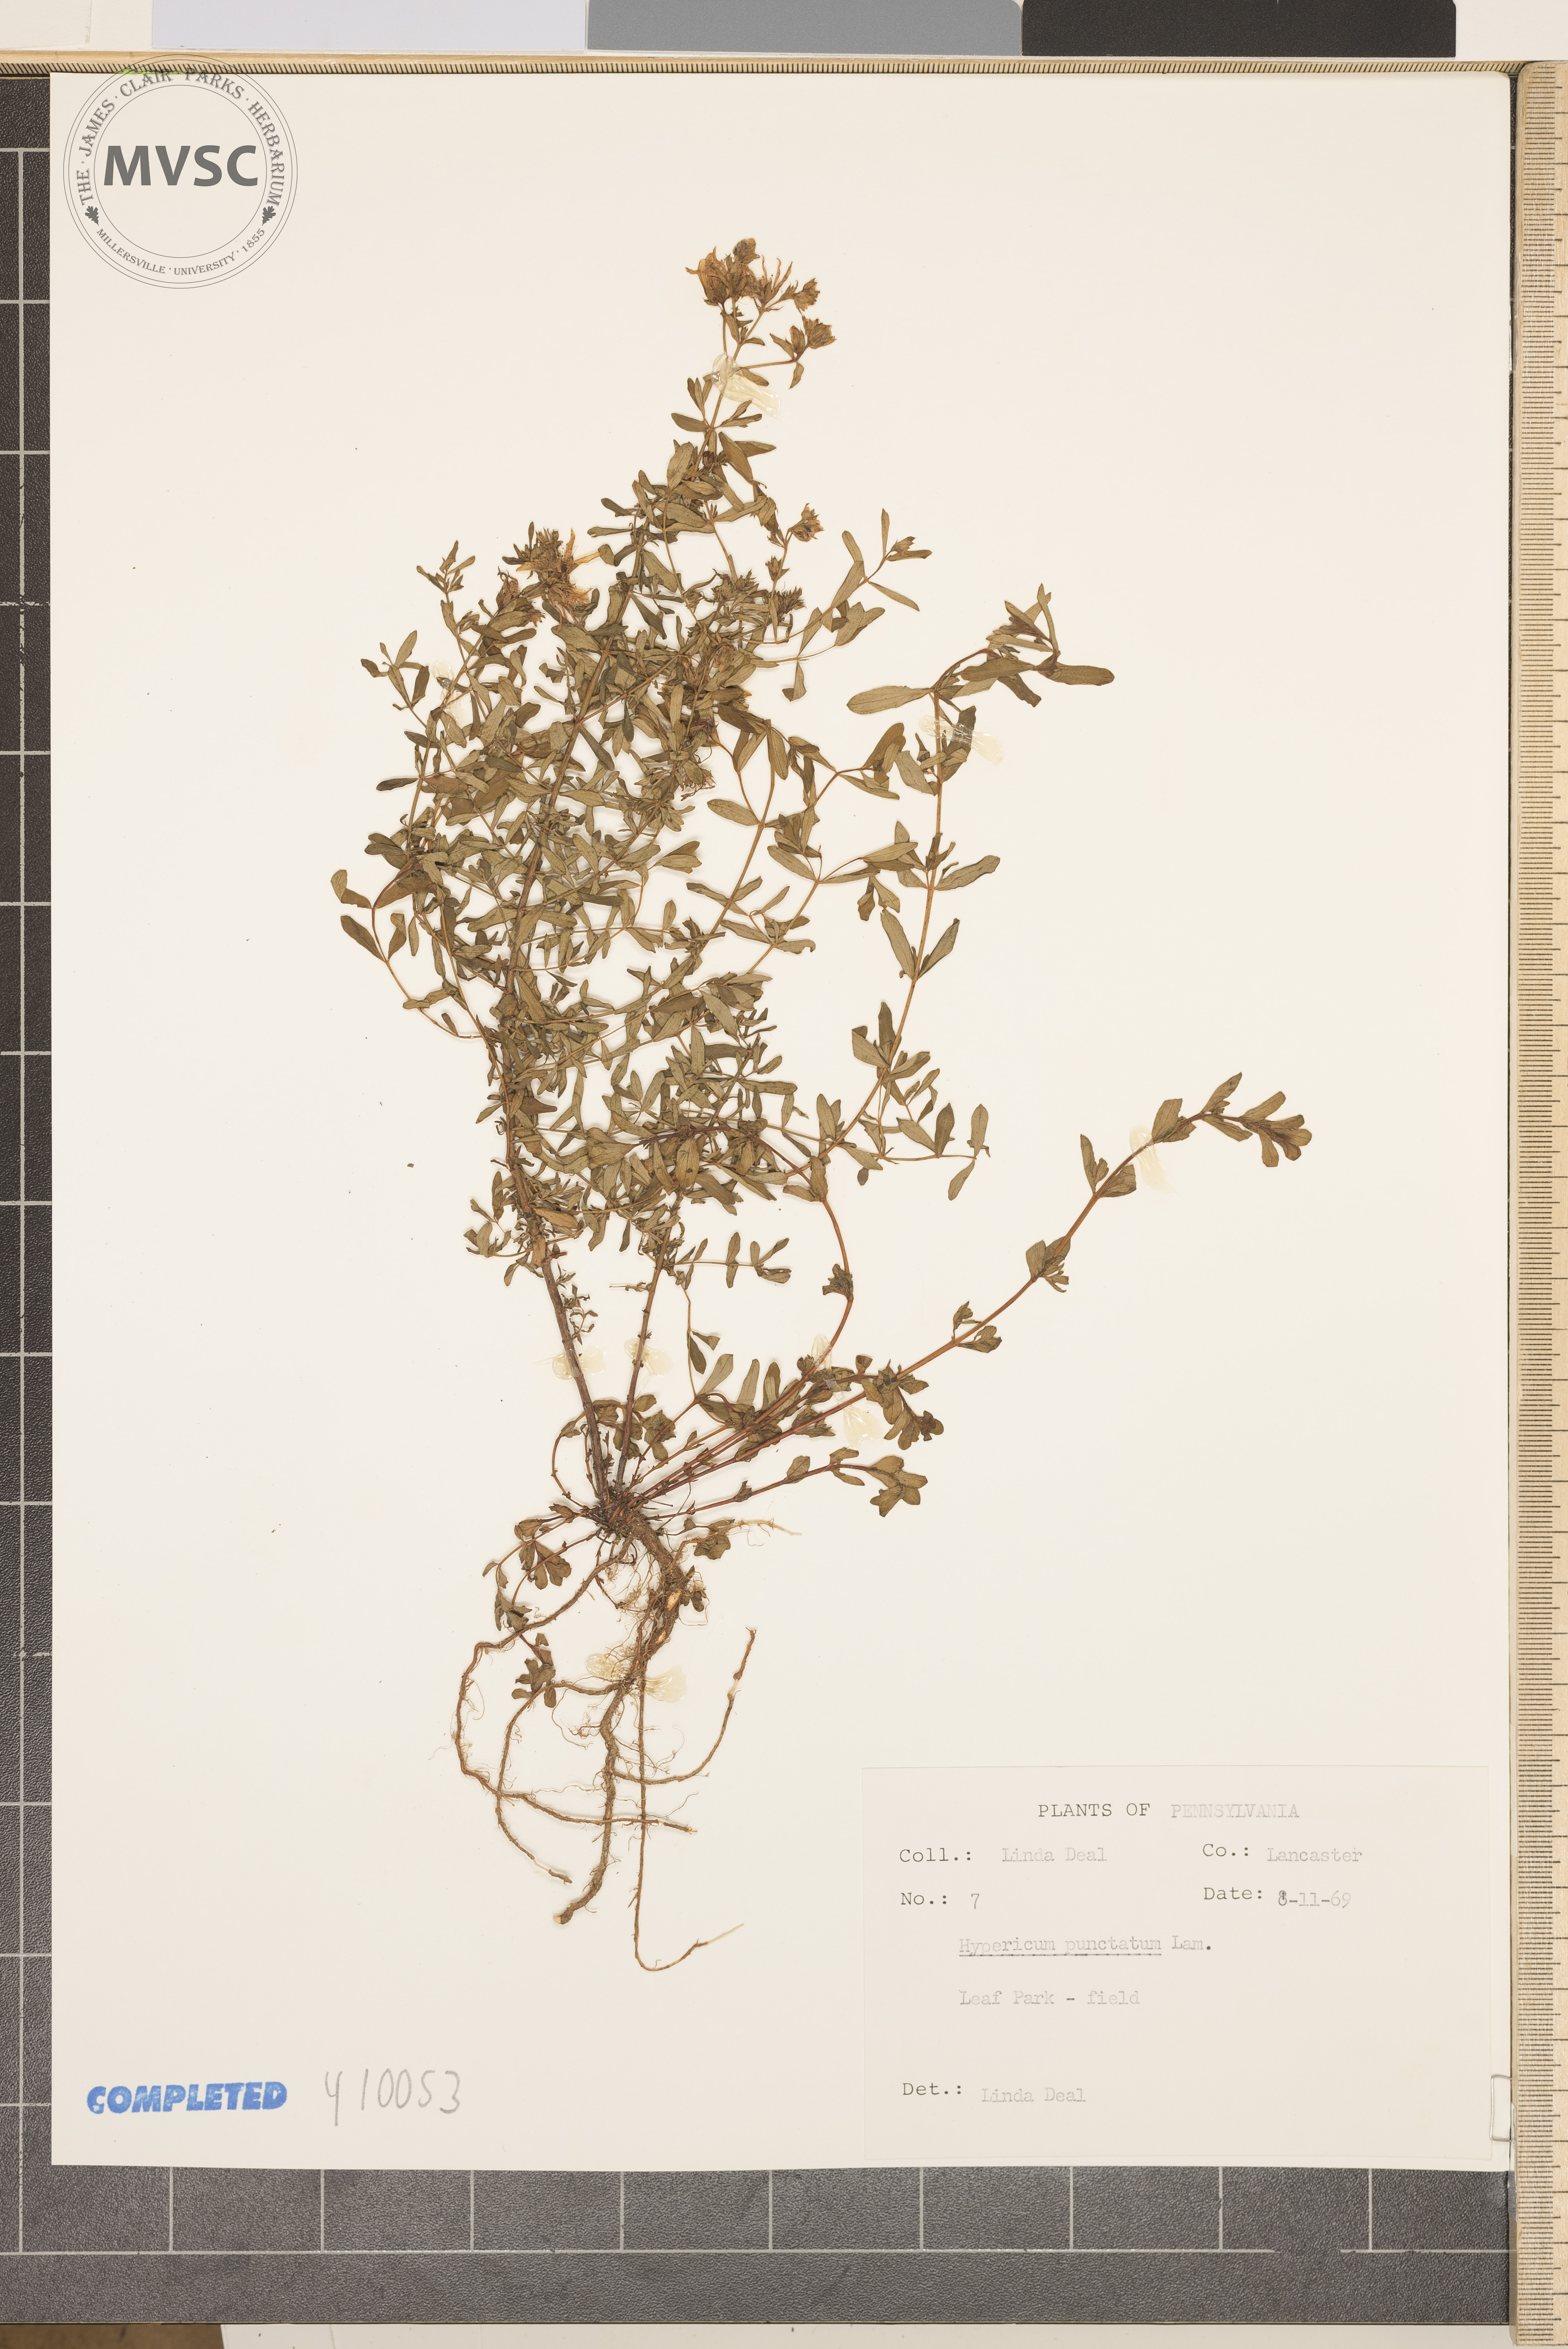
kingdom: Plantae
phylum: Tracheophyta
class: Magnoliopsida
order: Malpighiales
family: Hypericaceae
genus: Hypericum
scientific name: Hypericum punctatum
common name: Spotted St. John's-wort
